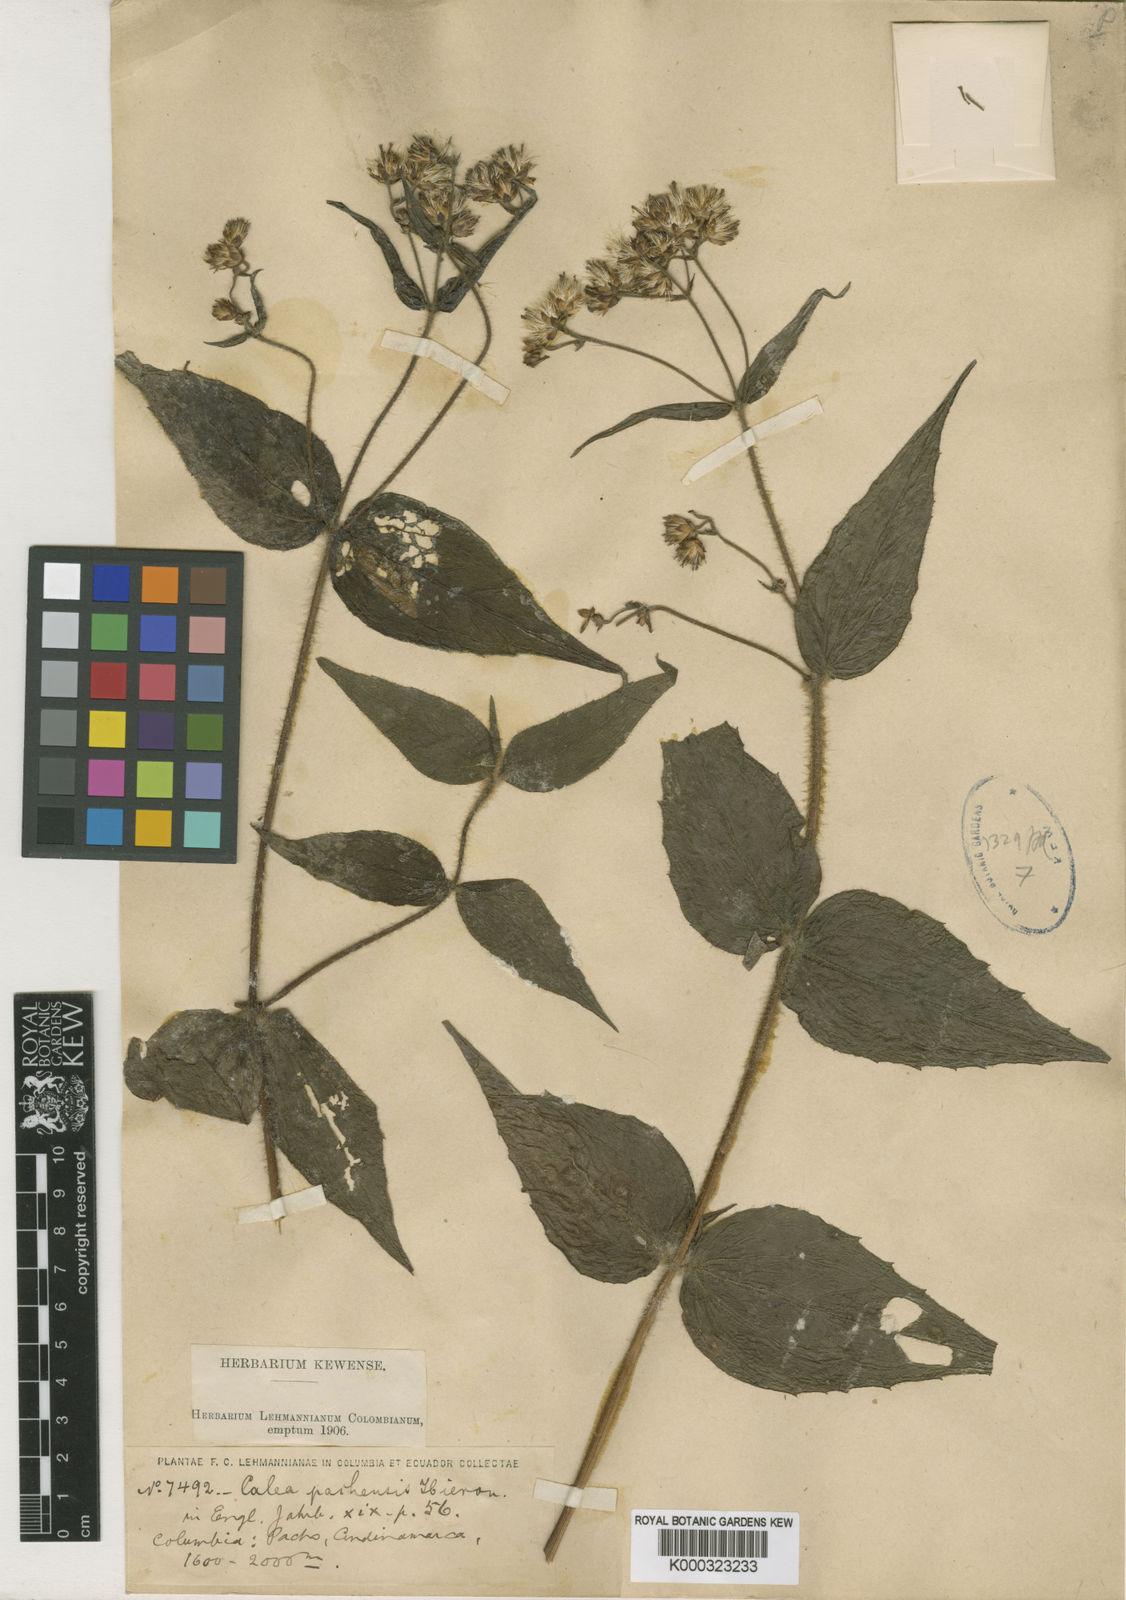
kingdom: Plantae
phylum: Tracheophyta
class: Magnoliopsida
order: Asterales
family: Asteraceae
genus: Alloispermum
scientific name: Alloispermum caracasanum
